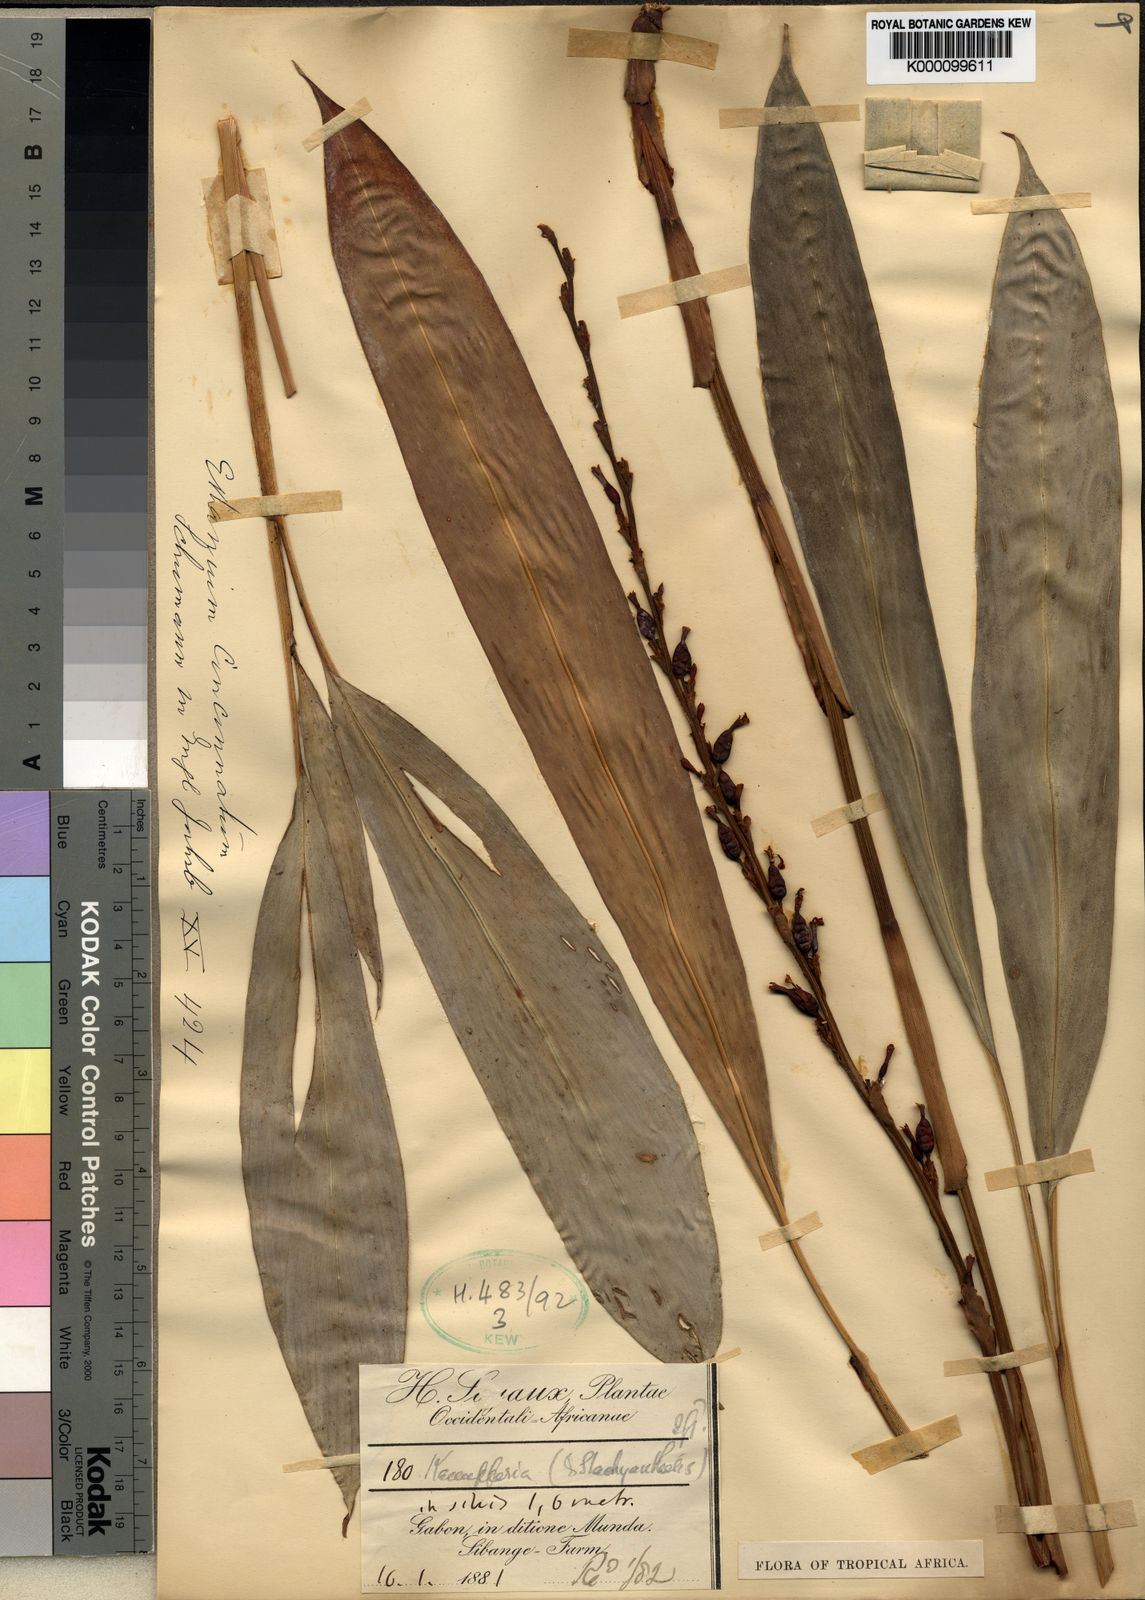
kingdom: Plantae
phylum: Tracheophyta
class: Liliopsida
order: Zingiberales
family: Zingiberaceae
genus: Renealmia
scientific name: Renealmia
